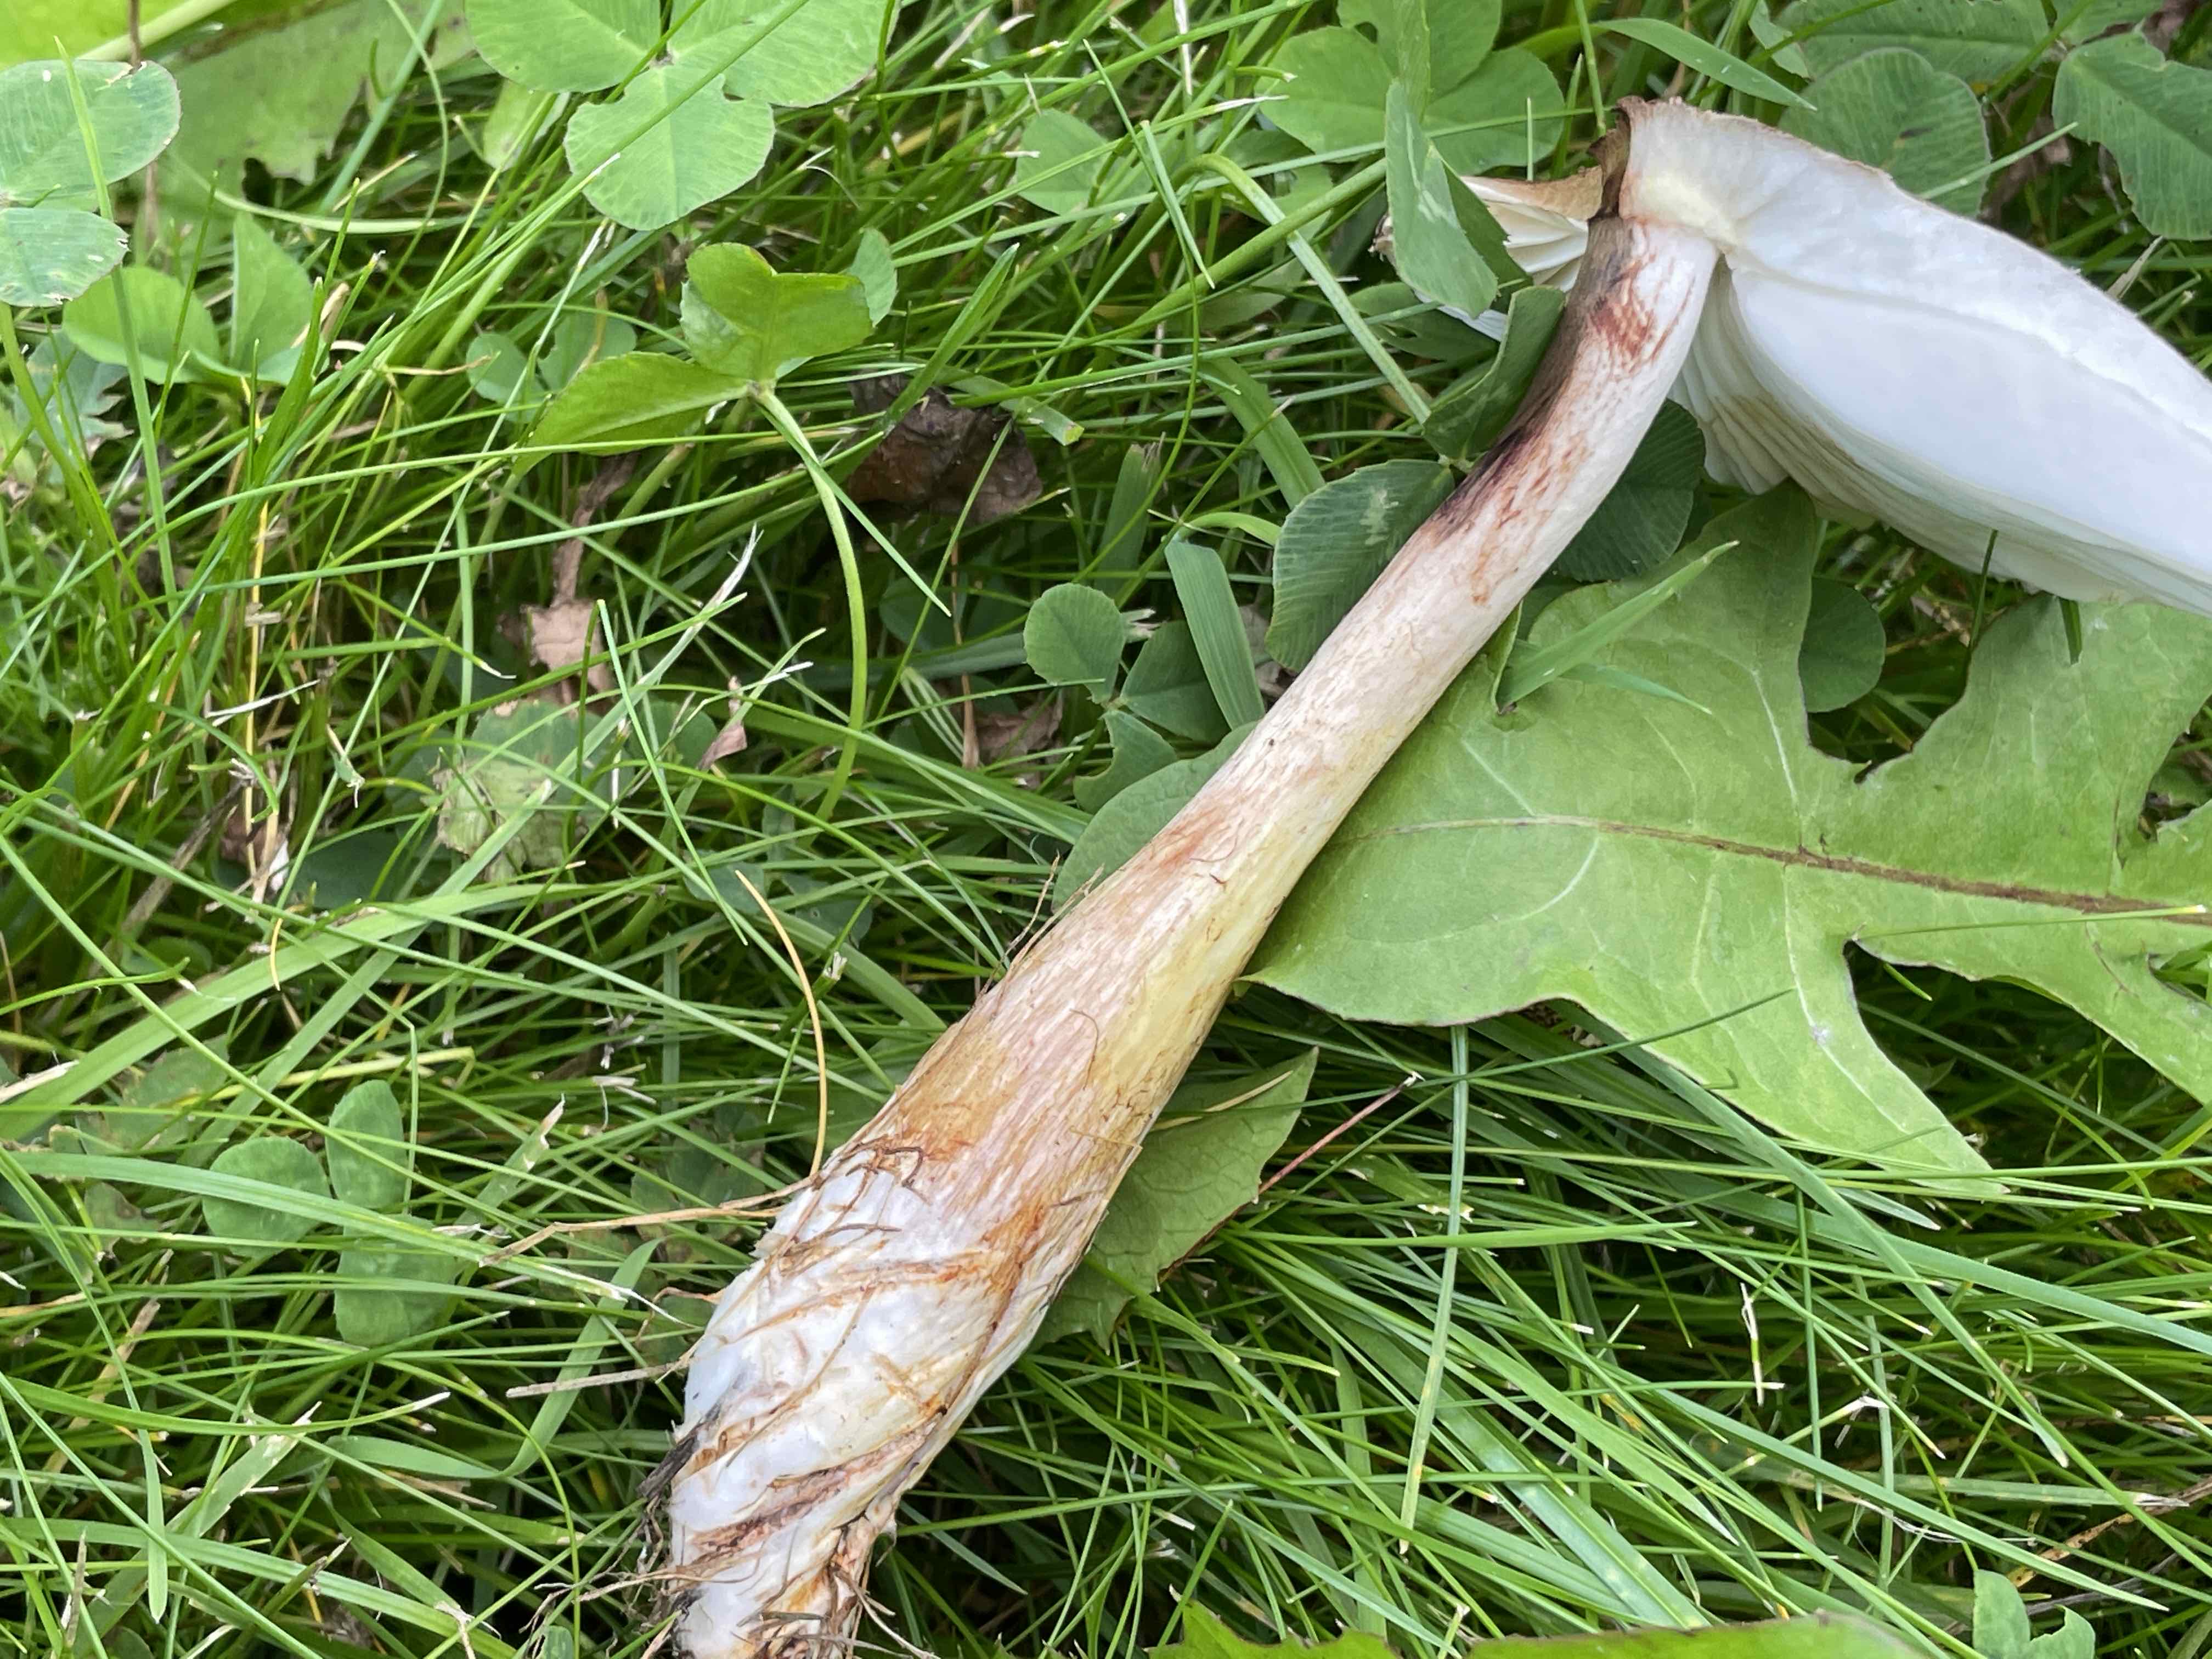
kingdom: Fungi
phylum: Basidiomycota
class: Agaricomycetes
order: Agaricales
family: Agaricaceae
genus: Leucoagaricus
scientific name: Leucoagaricus
